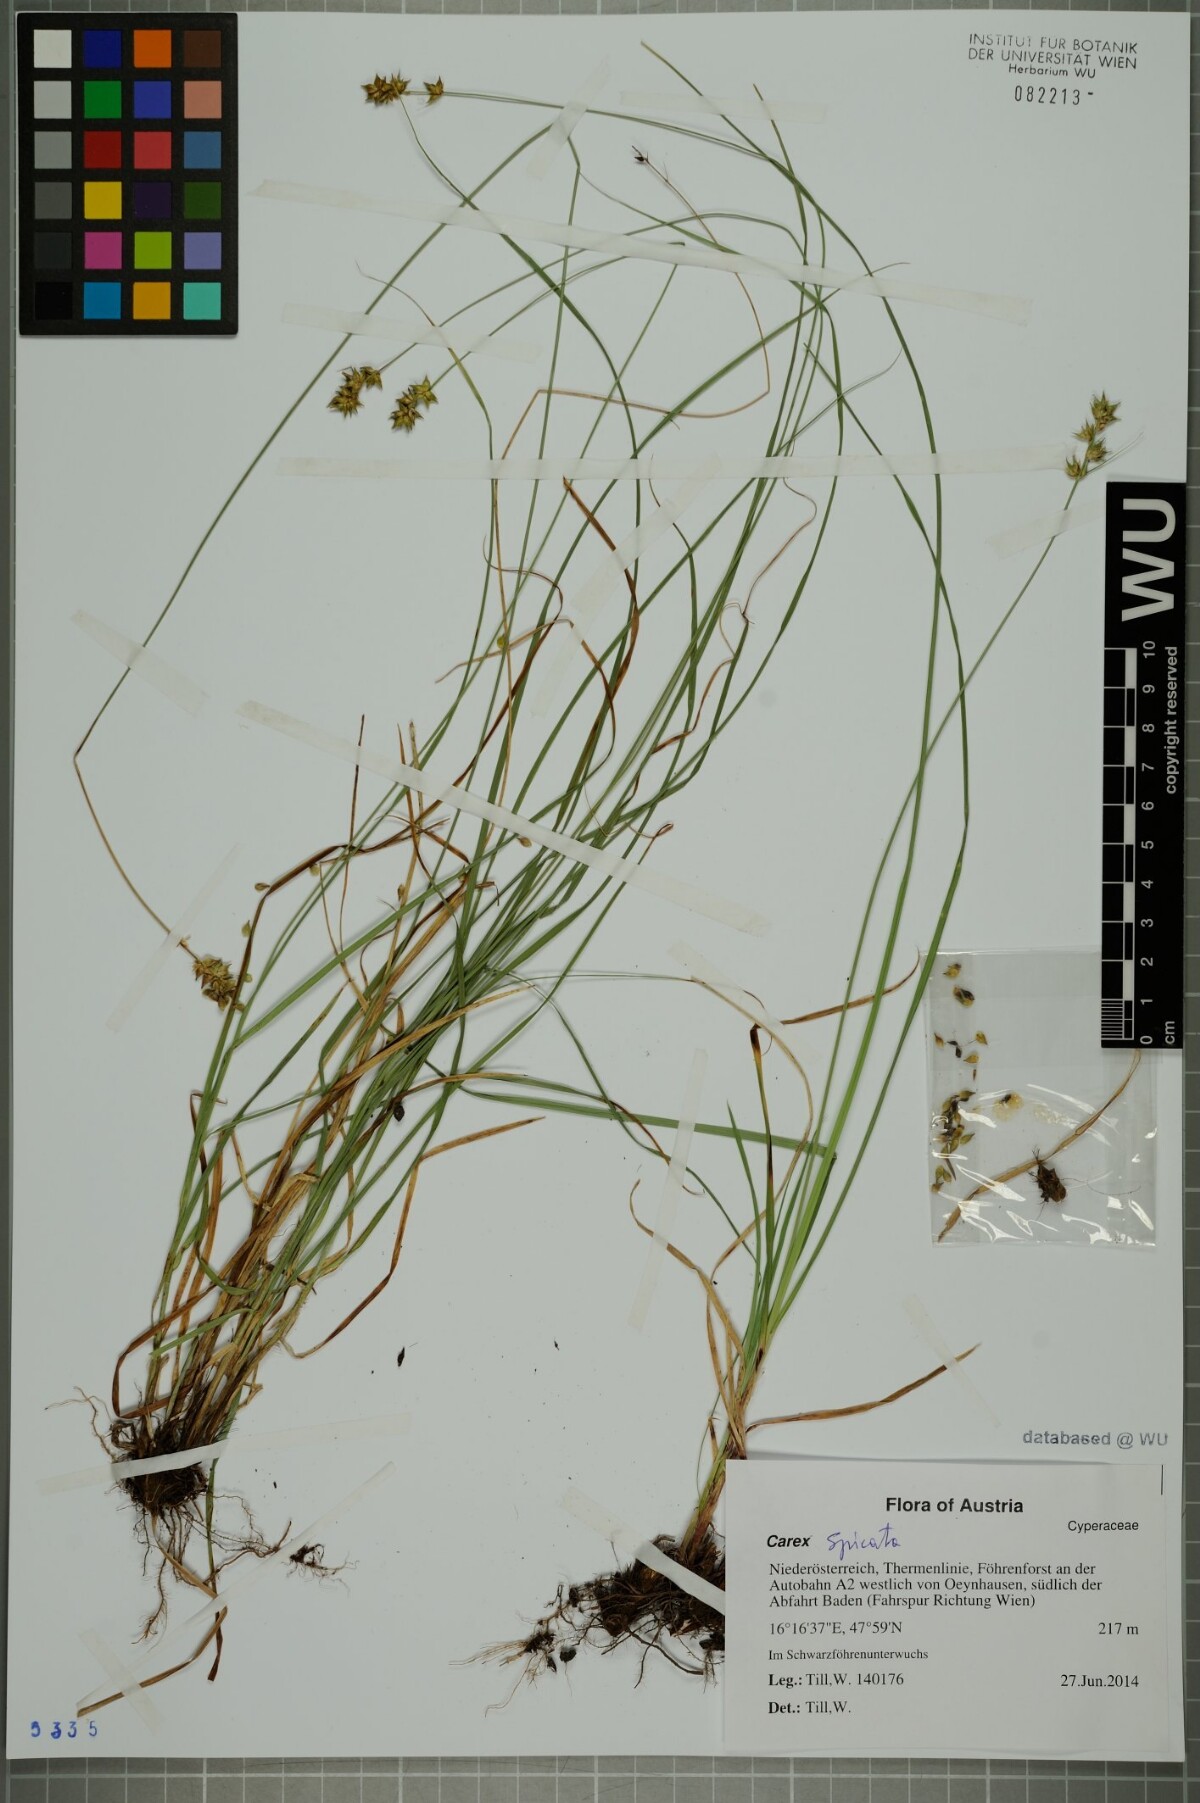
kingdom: Plantae
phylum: Tracheophyta
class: Liliopsida
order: Poales
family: Cyperaceae
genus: Carex
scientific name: Carex spicata
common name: Spiked sedge
